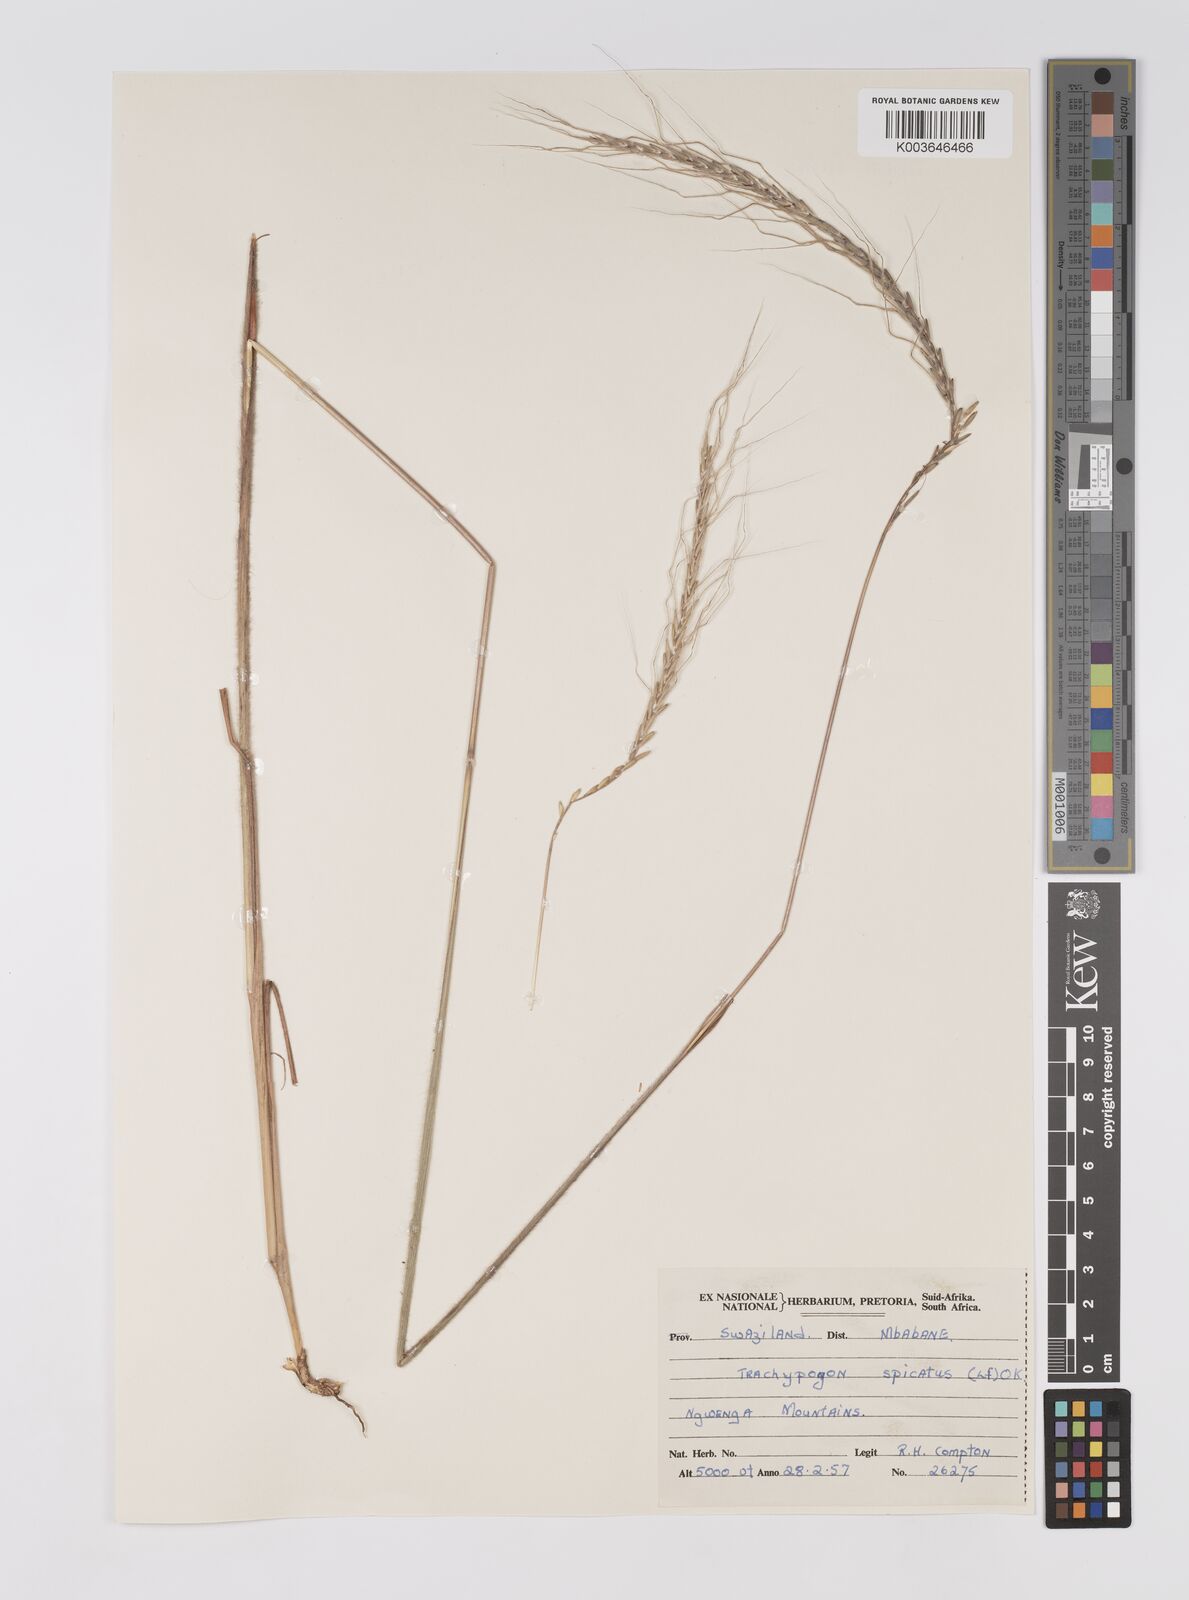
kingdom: Plantae
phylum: Tracheophyta
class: Liliopsida
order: Poales
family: Poaceae
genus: Trachypogon
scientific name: Trachypogon spicatus
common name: Crinkle-awn
